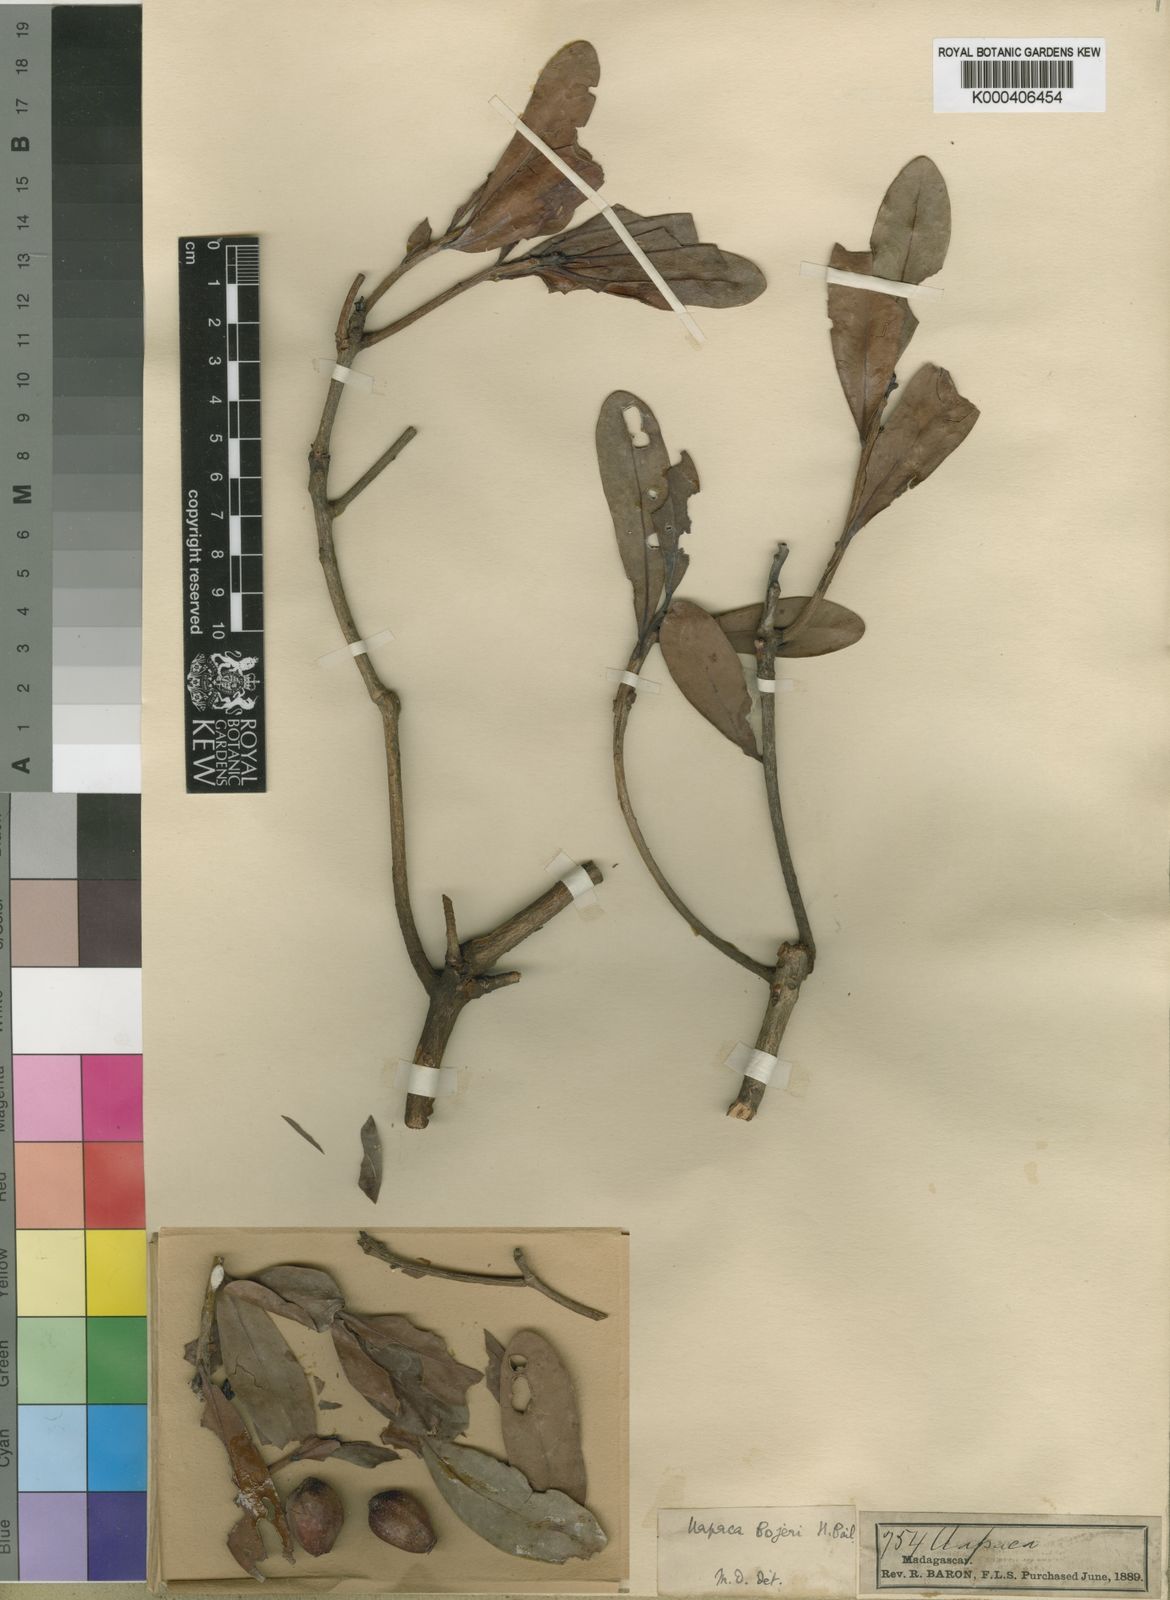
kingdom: Plantae
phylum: Tracheophyta
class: Magnoliopsida
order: Malpighiales
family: Phyllanthaceae
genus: Uapaca
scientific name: Uapaca bojeri
